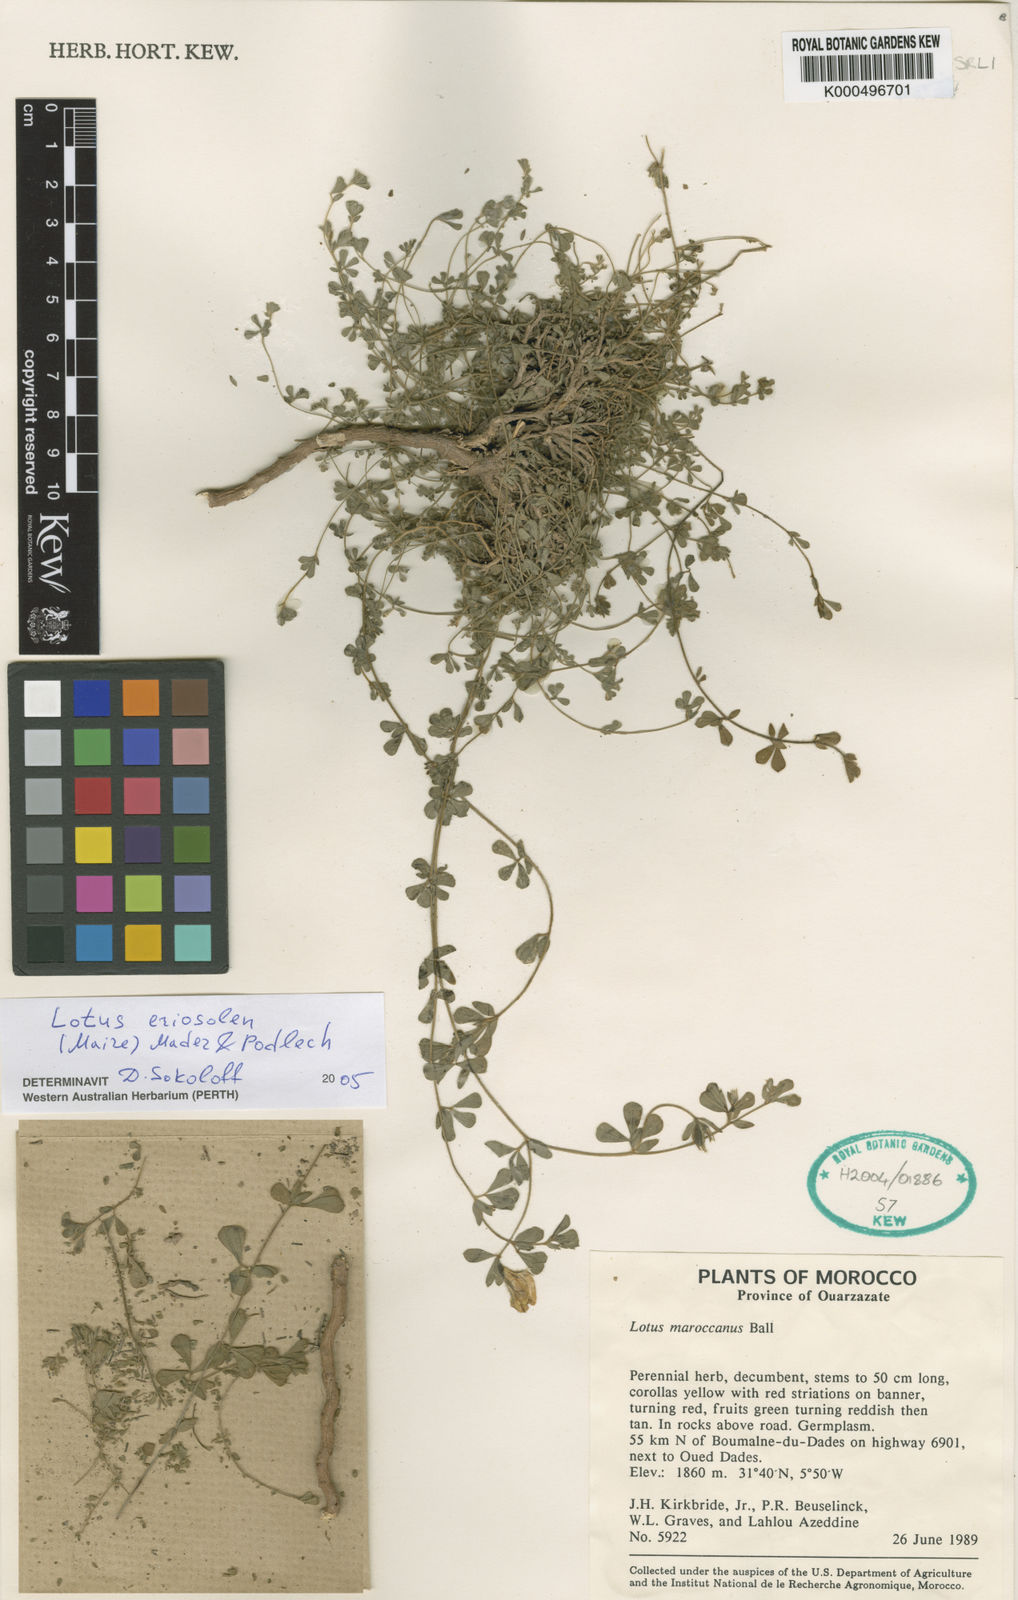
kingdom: Plantae
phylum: Tracheophyta
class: Magnoliopsida
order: Fabales
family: Fabaceae
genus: Lotus
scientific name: Lotus villicarpus
